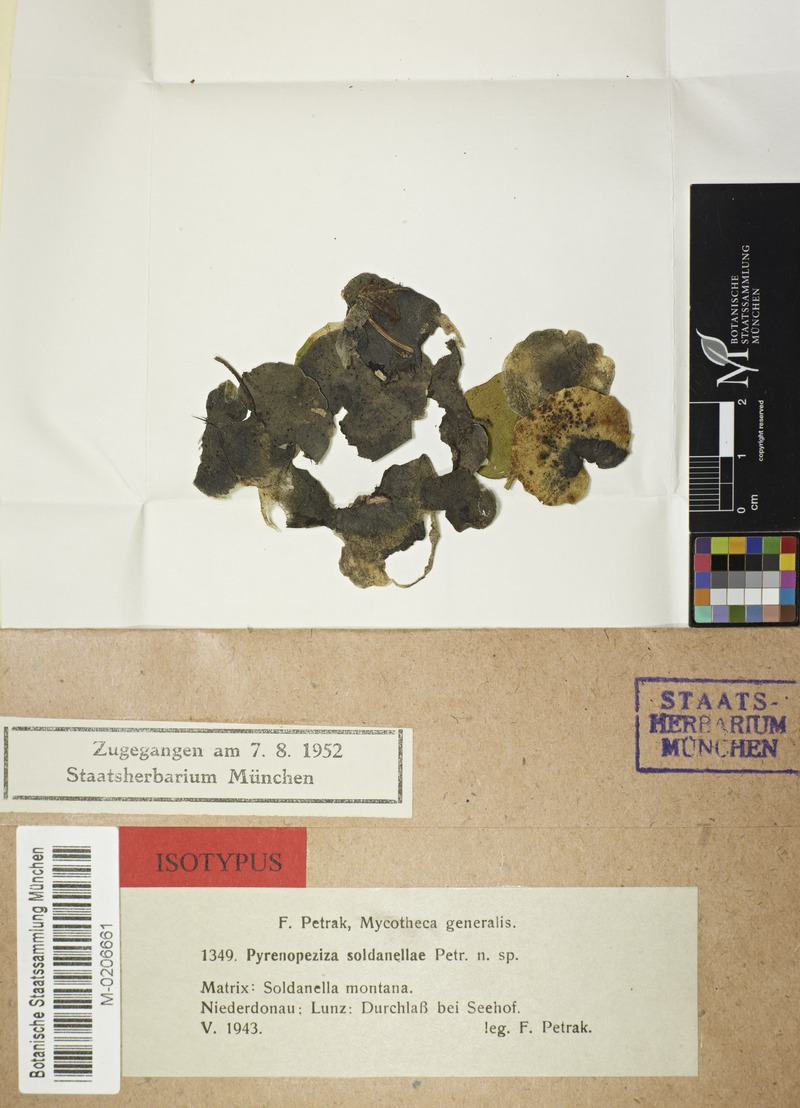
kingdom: Fungi
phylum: Ascomycota
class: Leotiomycetes
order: Helotiales
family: Ploettnerulaceae
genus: Pyrenopeziza
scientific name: Pyrenopeziza soldanellae
